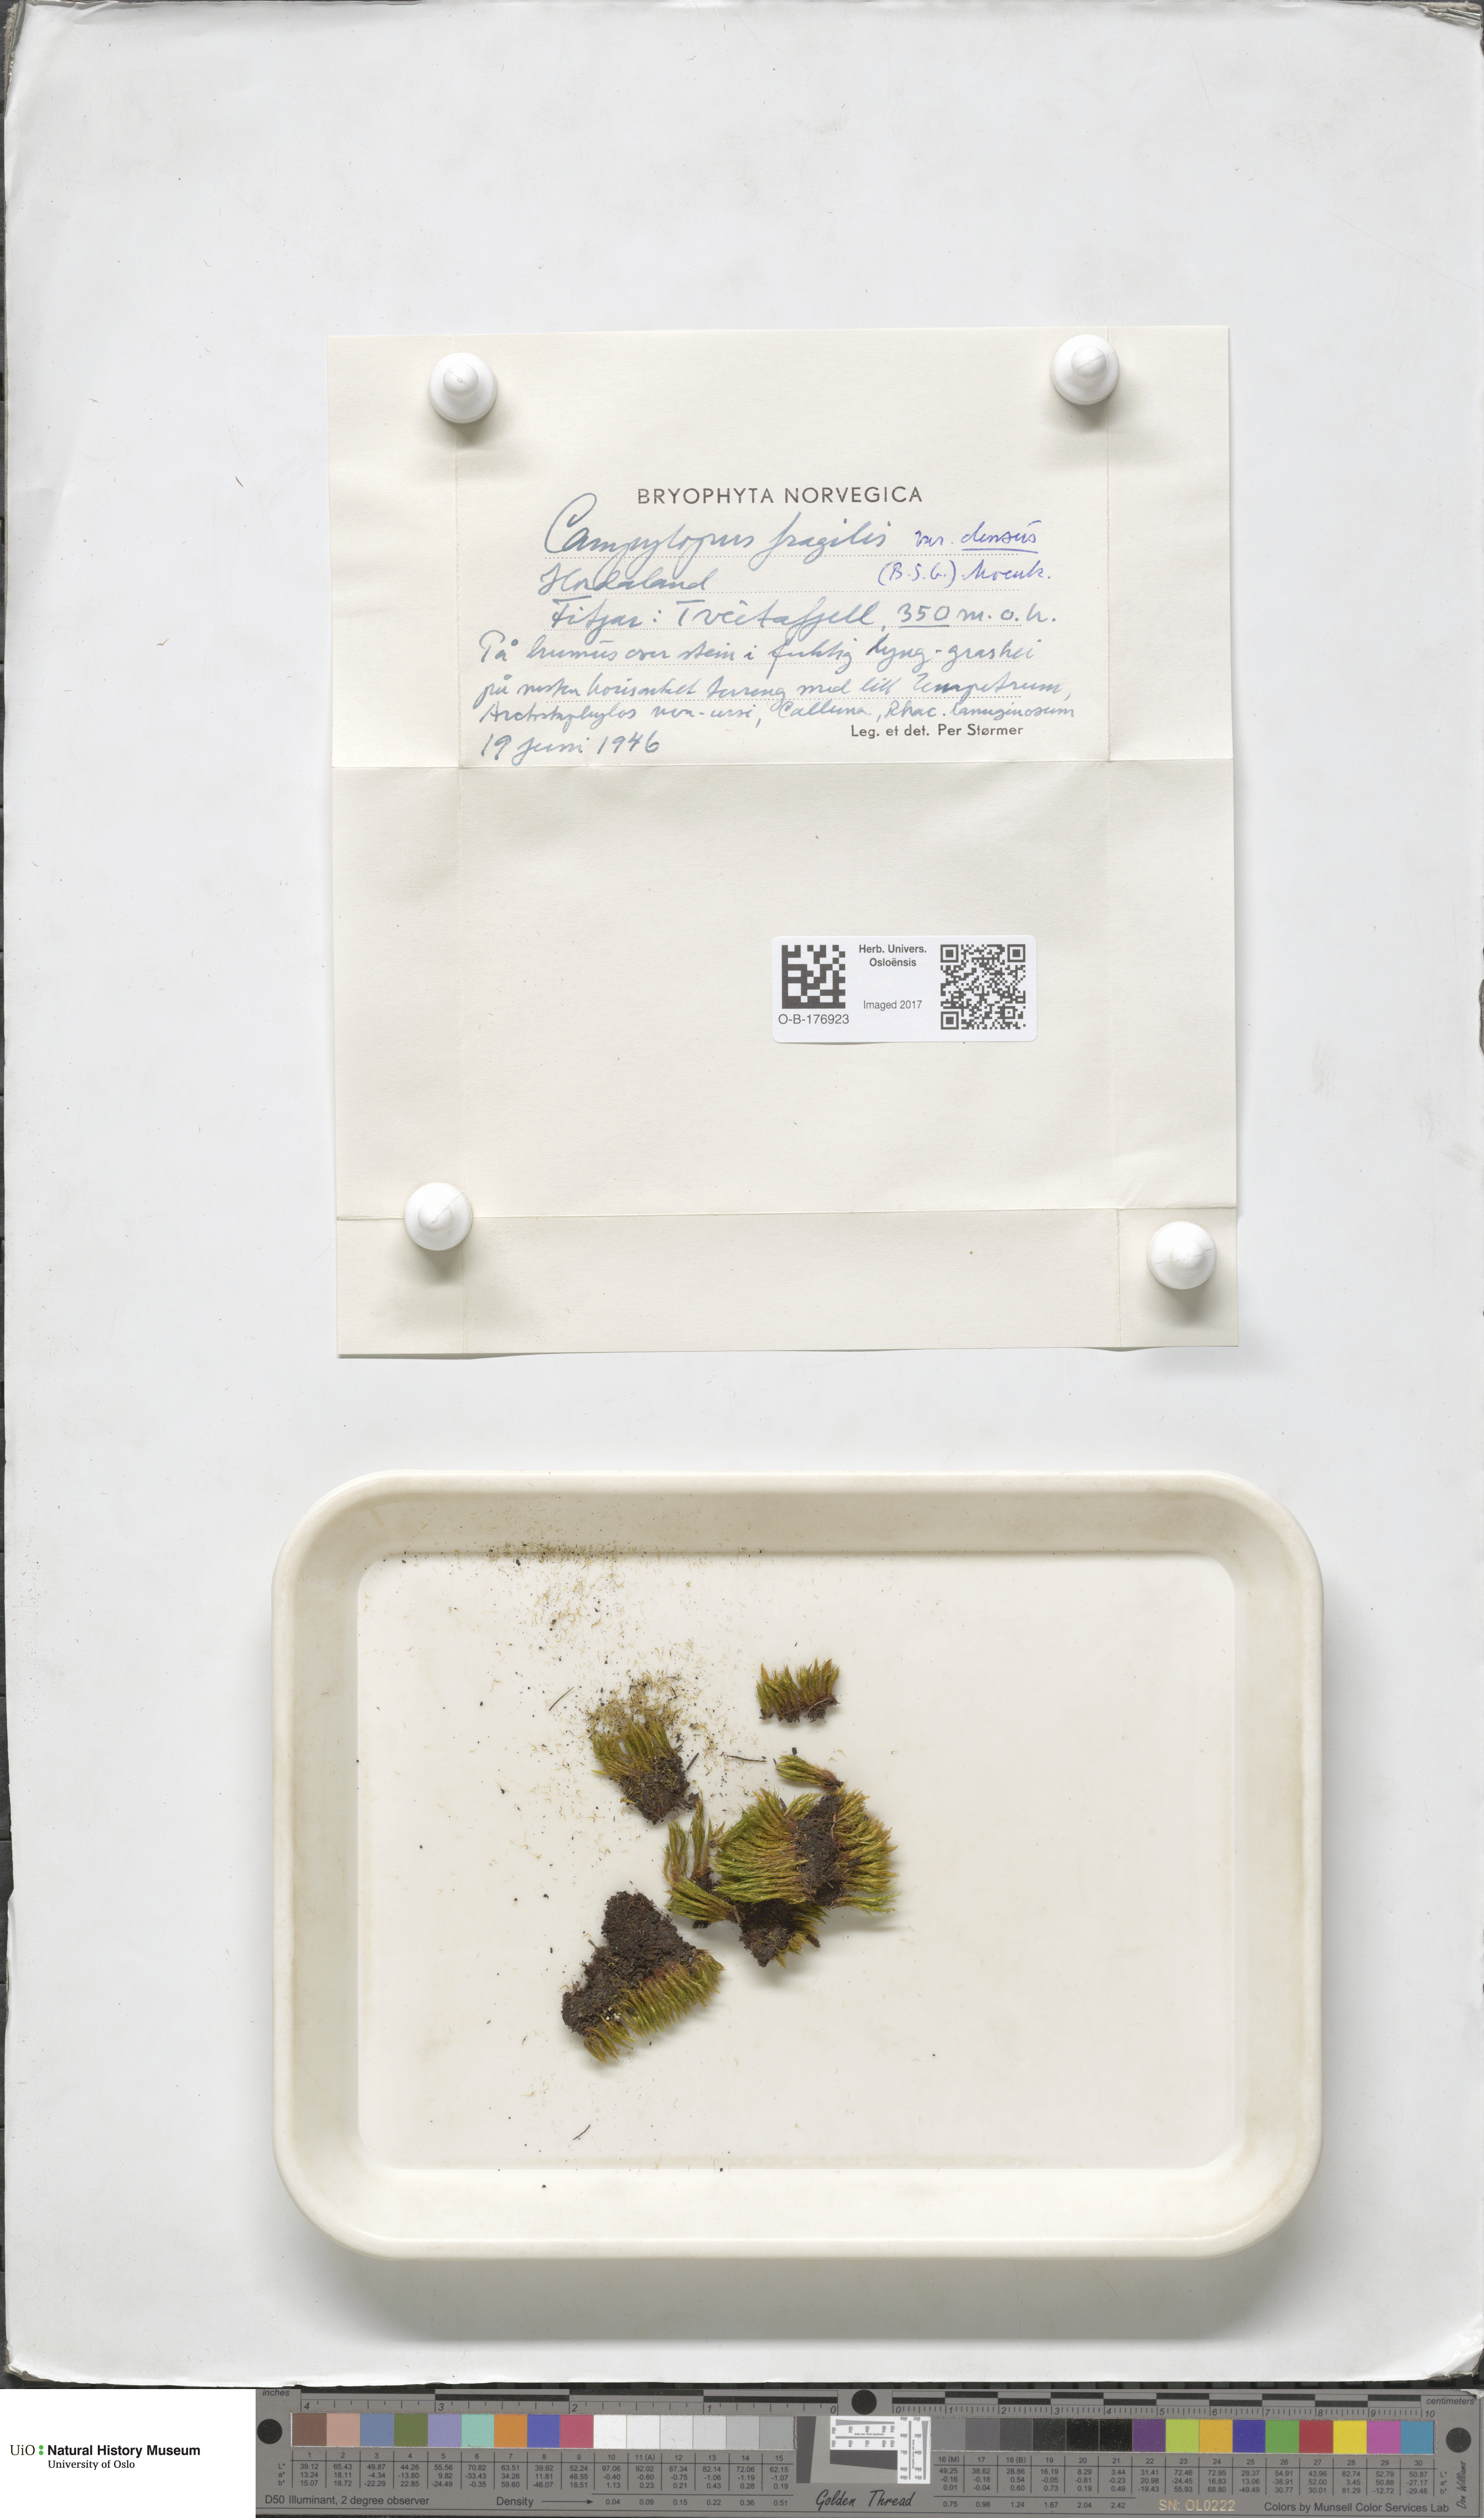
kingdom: Plantae
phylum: Bryophyta
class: Bryopsida
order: Dicranales
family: Leucobryaceae
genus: Campylopus
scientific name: Campylopus fragilis
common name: Brittle swan-neck moss
